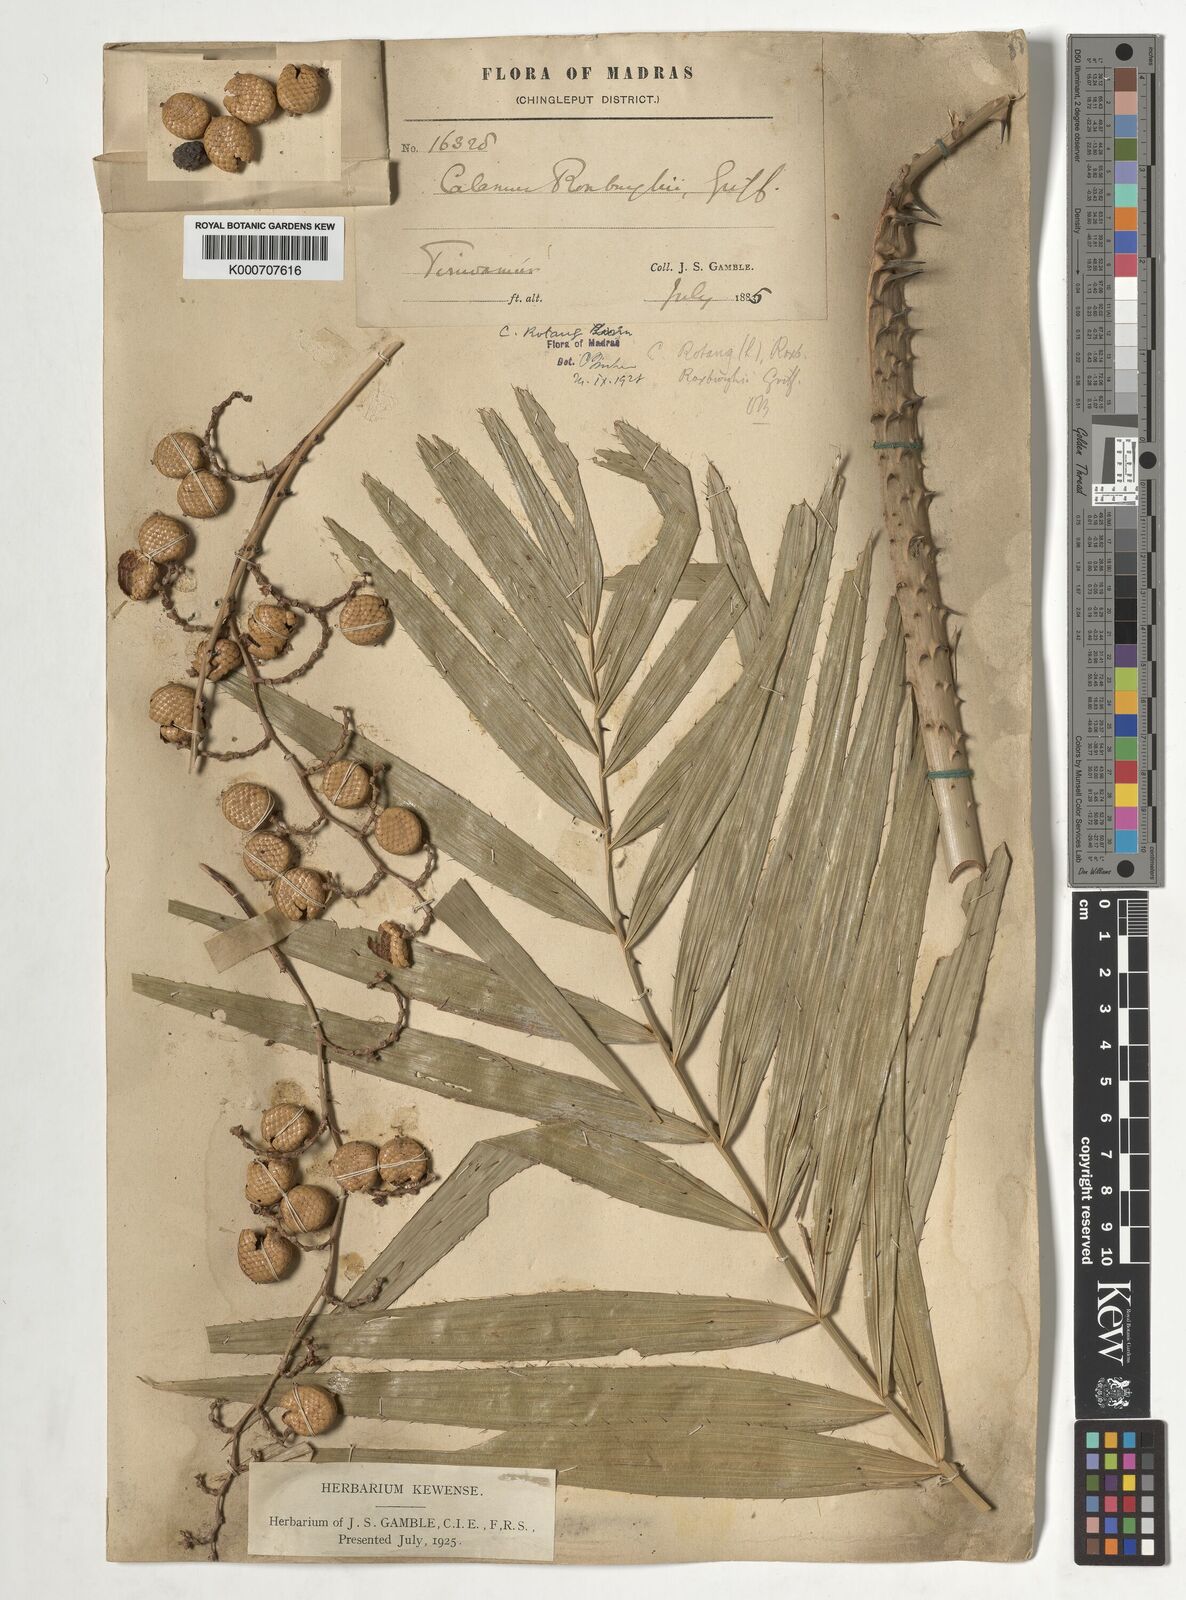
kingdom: Plantae
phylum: Tracheophyta
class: Liliopsida
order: Arecales
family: Arecaceae
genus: Calamus
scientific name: Calamus rotang
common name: Rattan cane
